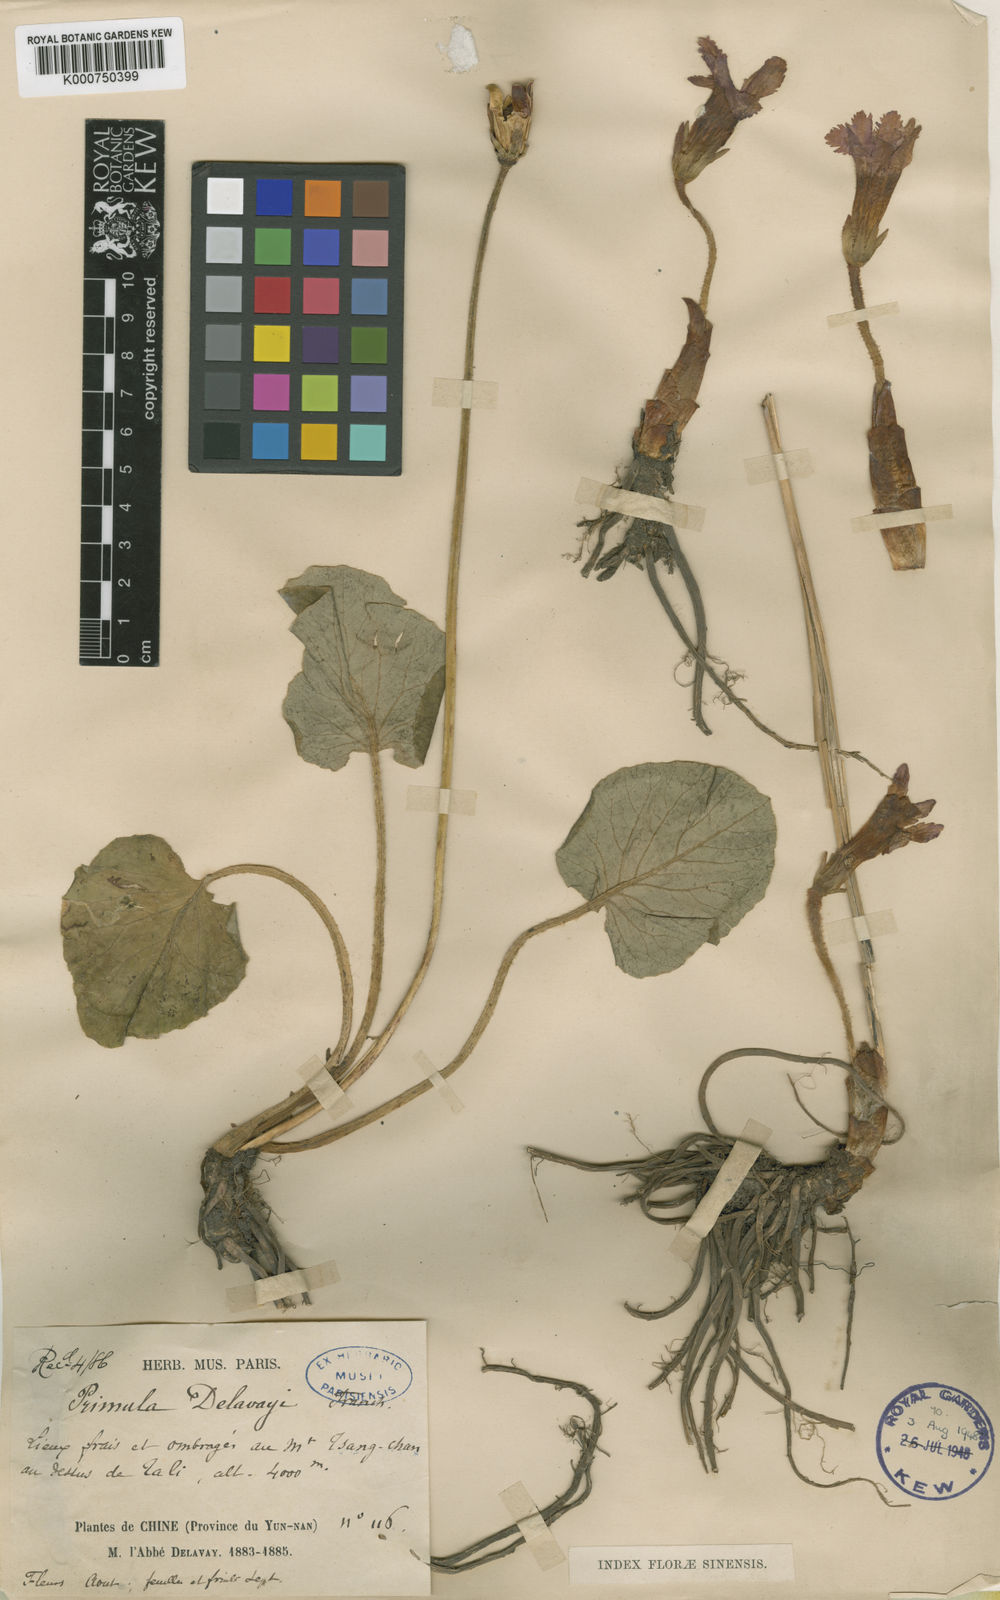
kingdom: Plantae
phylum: Tracheophyta
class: Magnoliopsida
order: Ericales
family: Primulaceae
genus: Omphalogramma
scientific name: Omphalogramma delavayi
